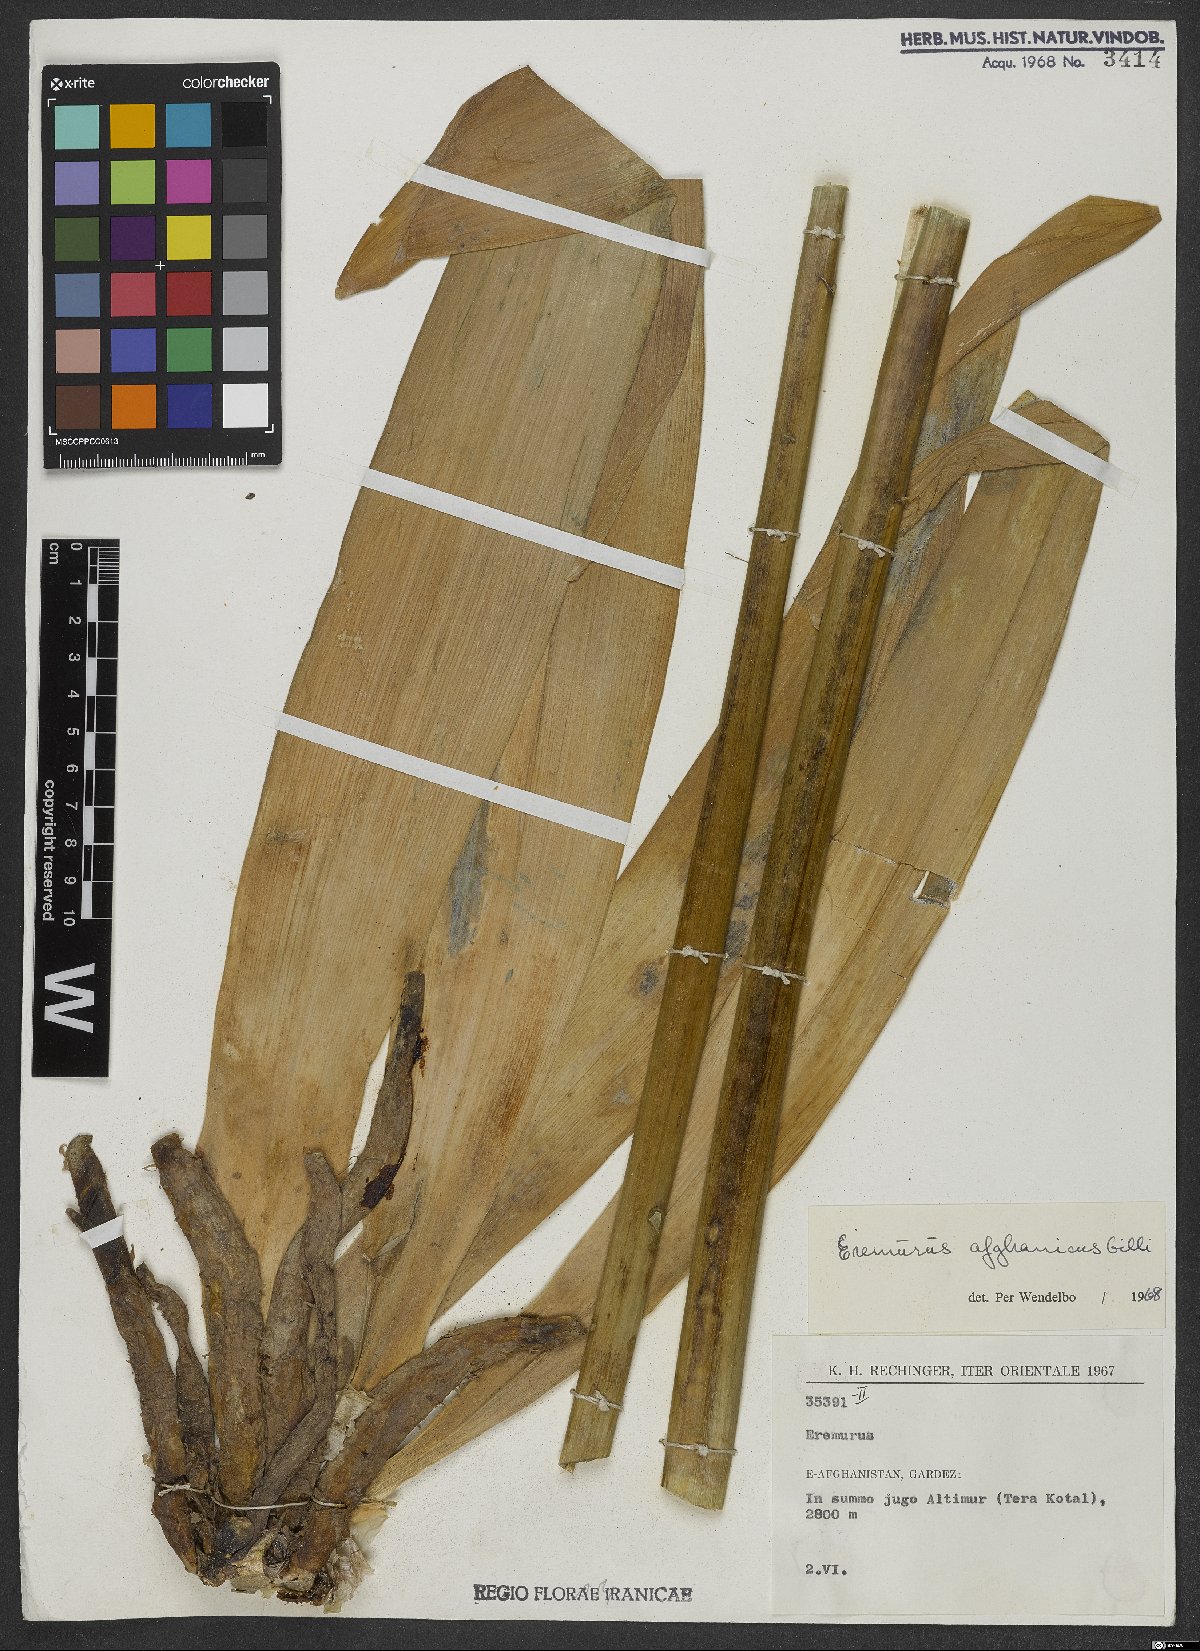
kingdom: Plantae
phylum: Tracheophyta
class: Liliopsida
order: Asparagales
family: Asphodelaceae
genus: Eremurus
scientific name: Eremurus afghanicus
